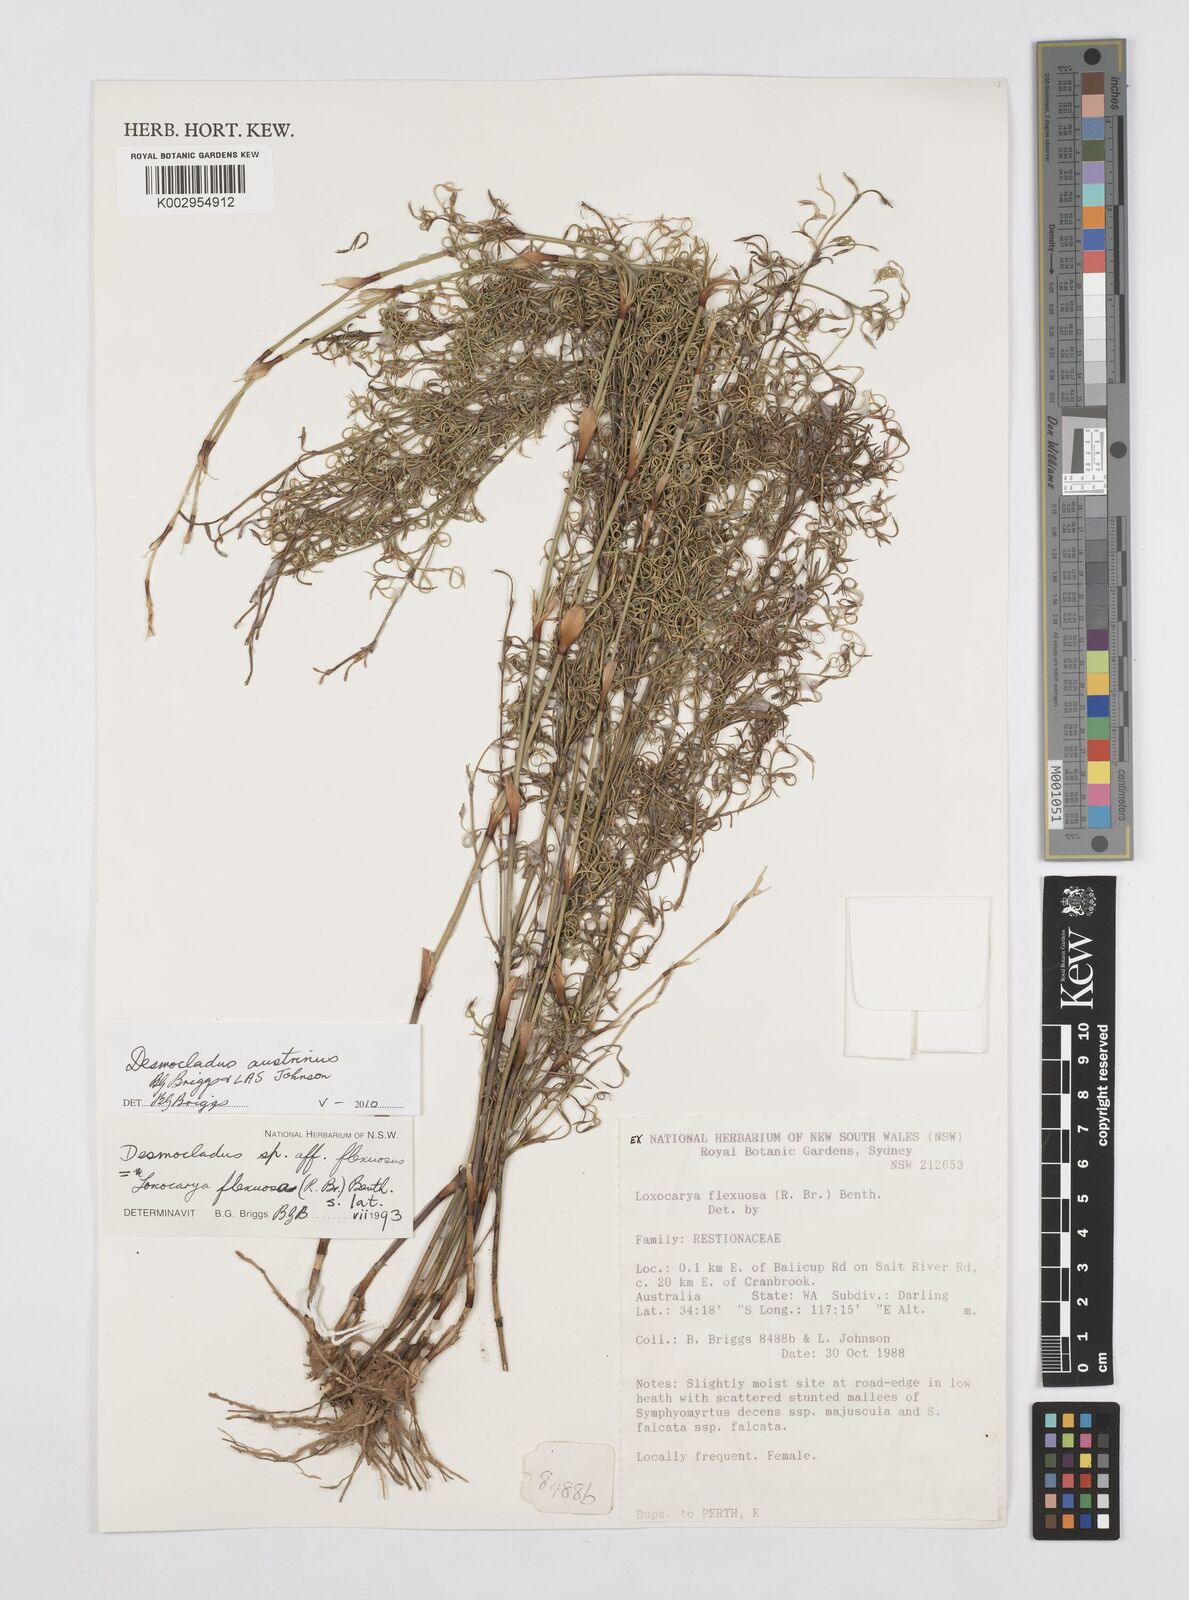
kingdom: Plantae
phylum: Tracheophyta
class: Liliopsida
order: Poales
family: Restionaceae
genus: Desmocladus
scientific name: Desmocladus austrinus
